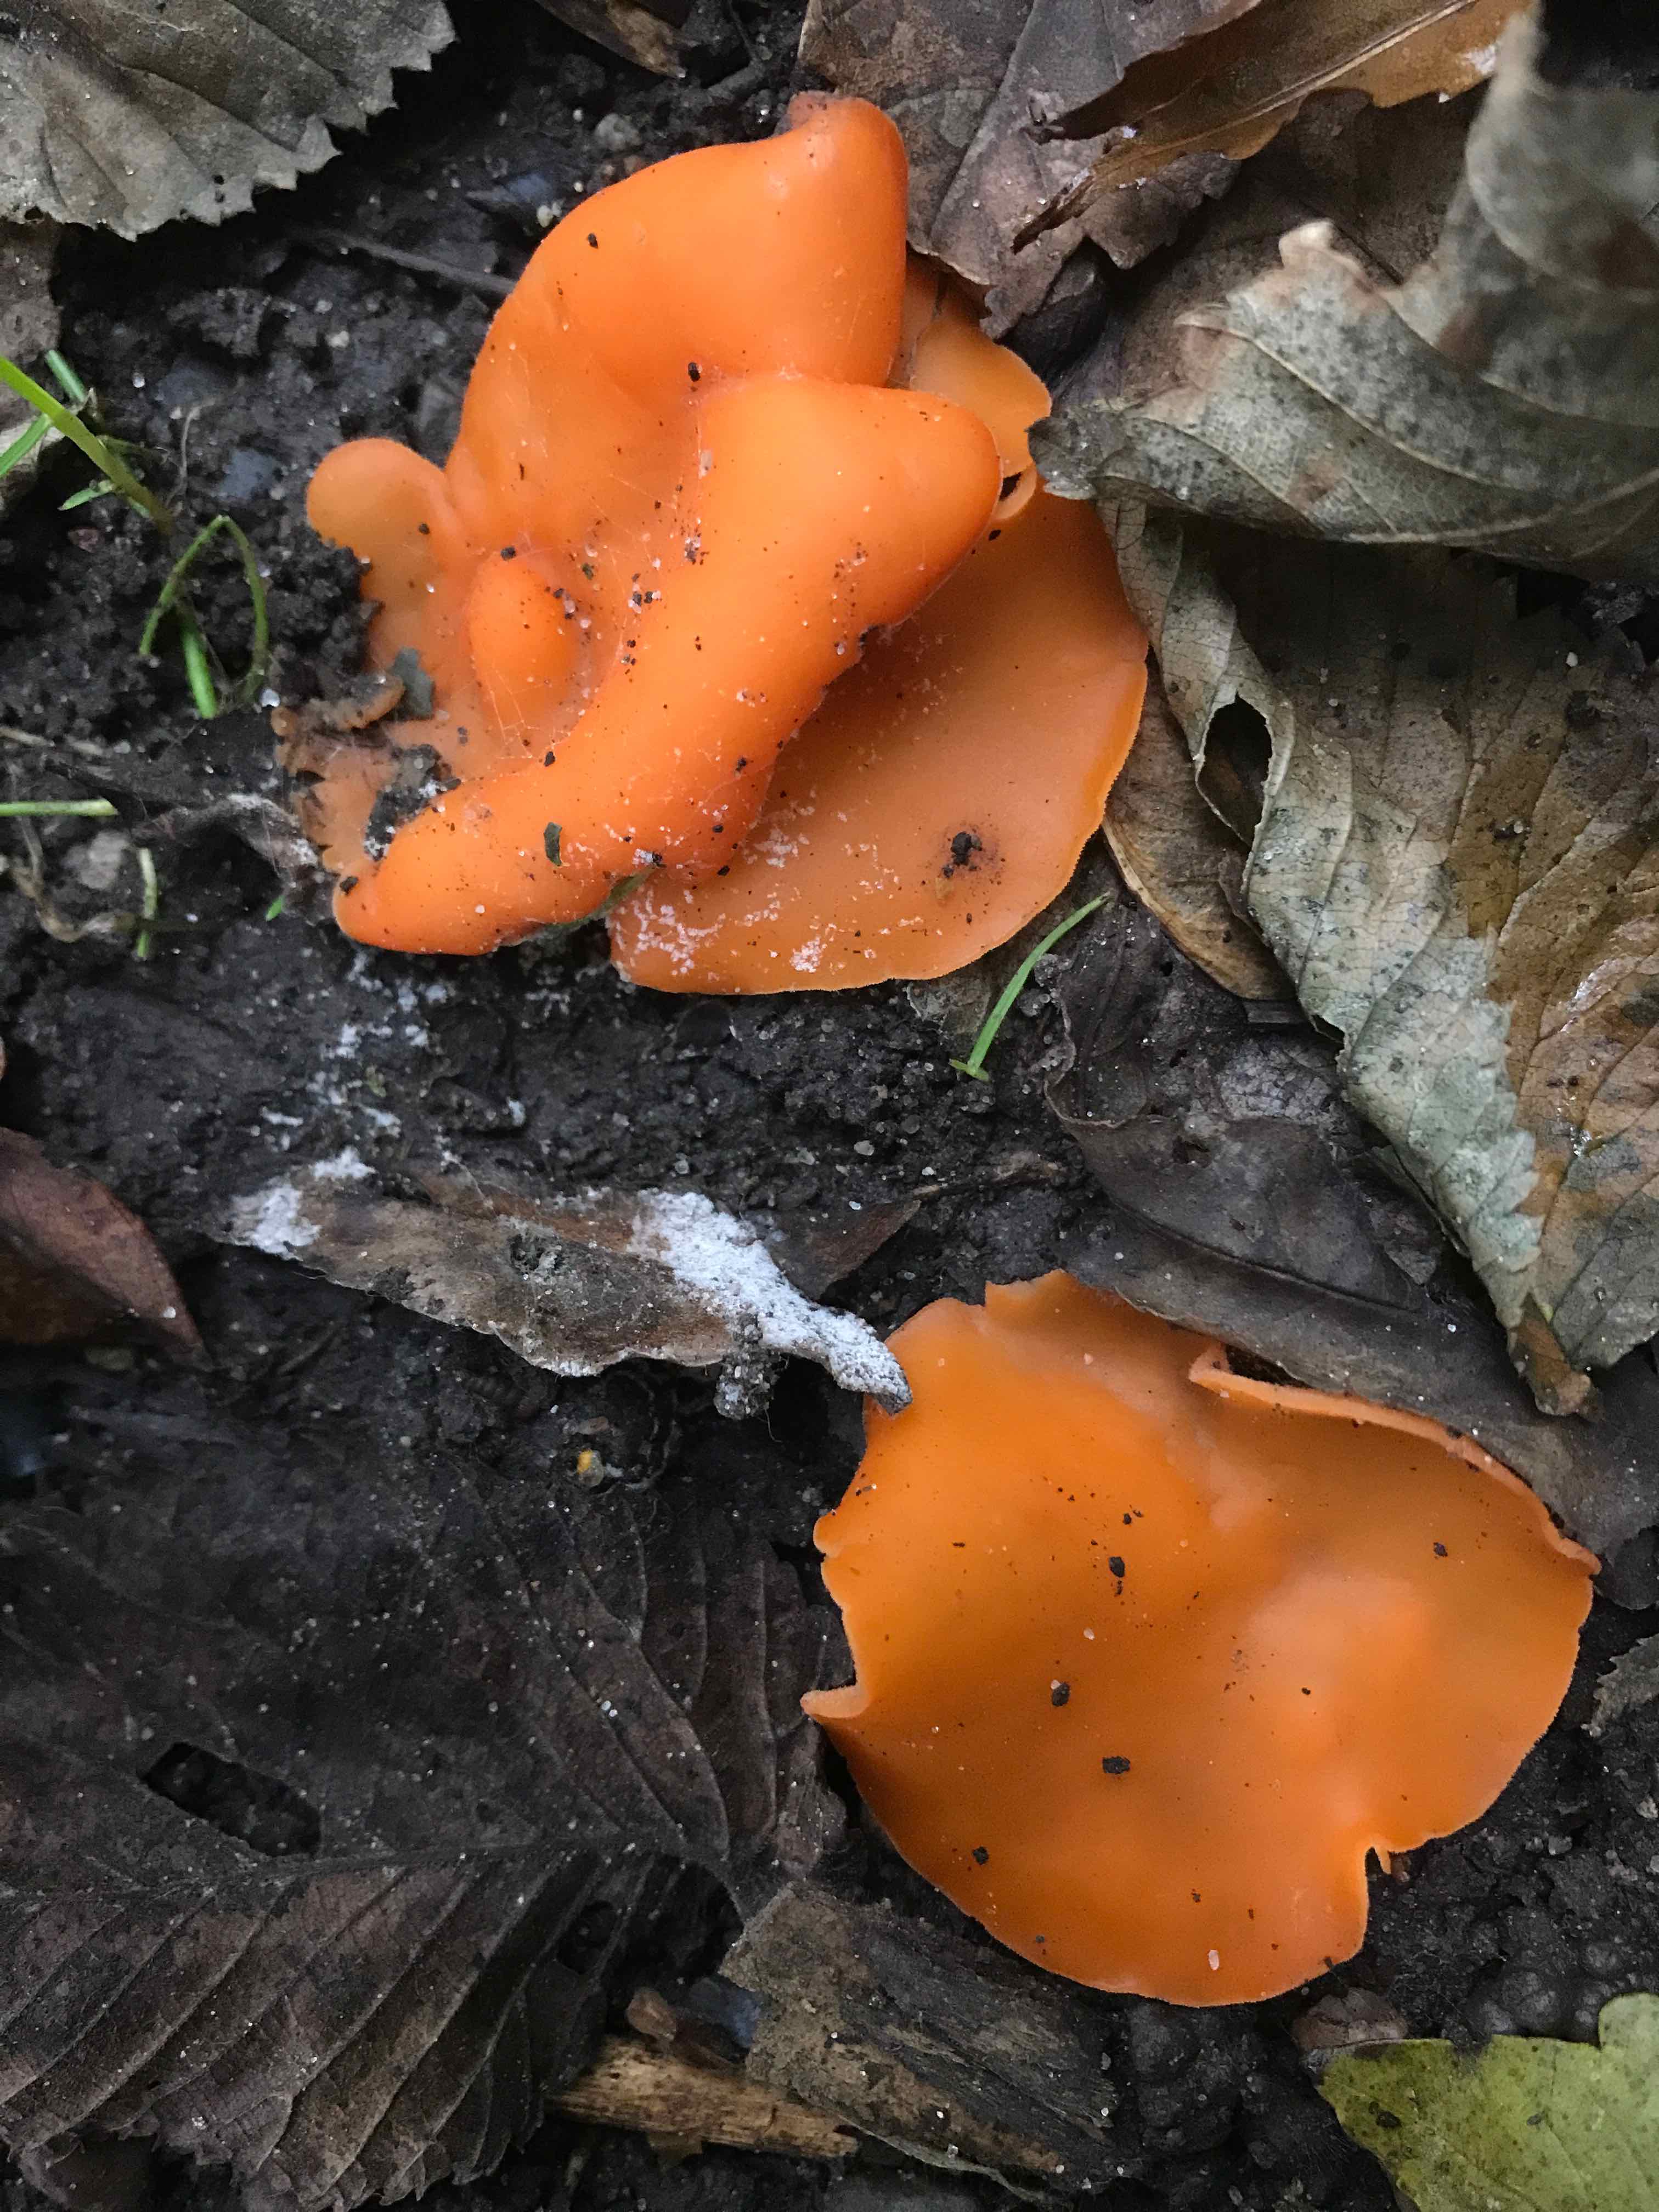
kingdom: Fungi
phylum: Ascomycota
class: Pezizomycetes
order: Pezizales
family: Pyronemataceae
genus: Aleuria
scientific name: Aleuria aurantia
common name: almindelig orangebæger
